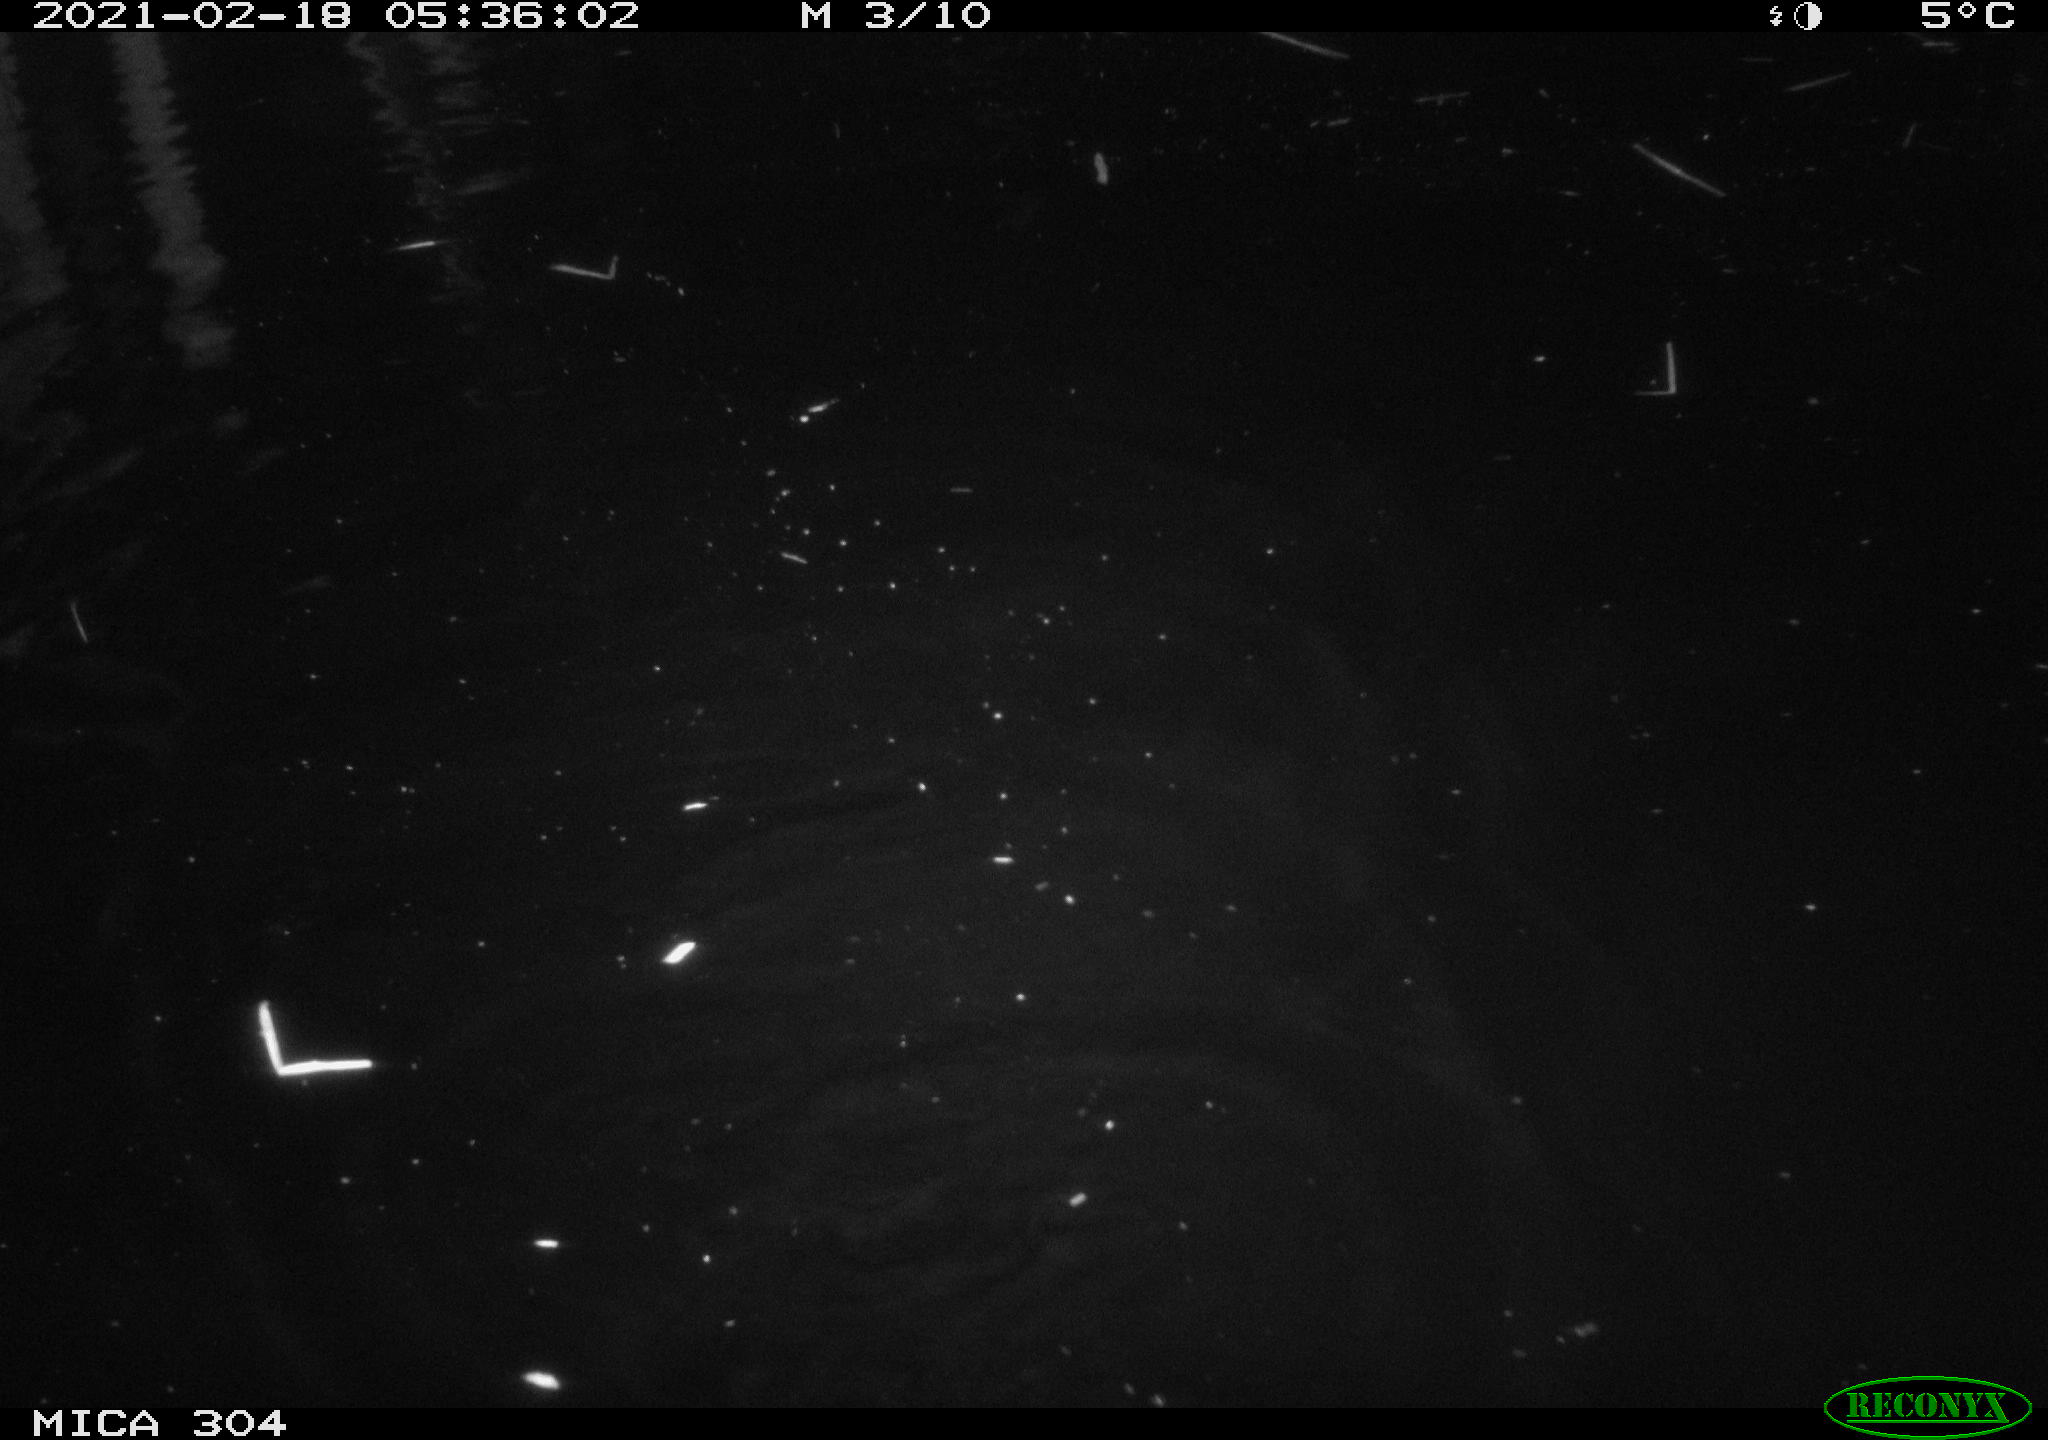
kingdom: Animalia
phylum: Chordata
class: Mammalia
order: Rodentia
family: Cricetidae
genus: Ondatra
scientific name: Ondatra zibethicus
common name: Muskrat
